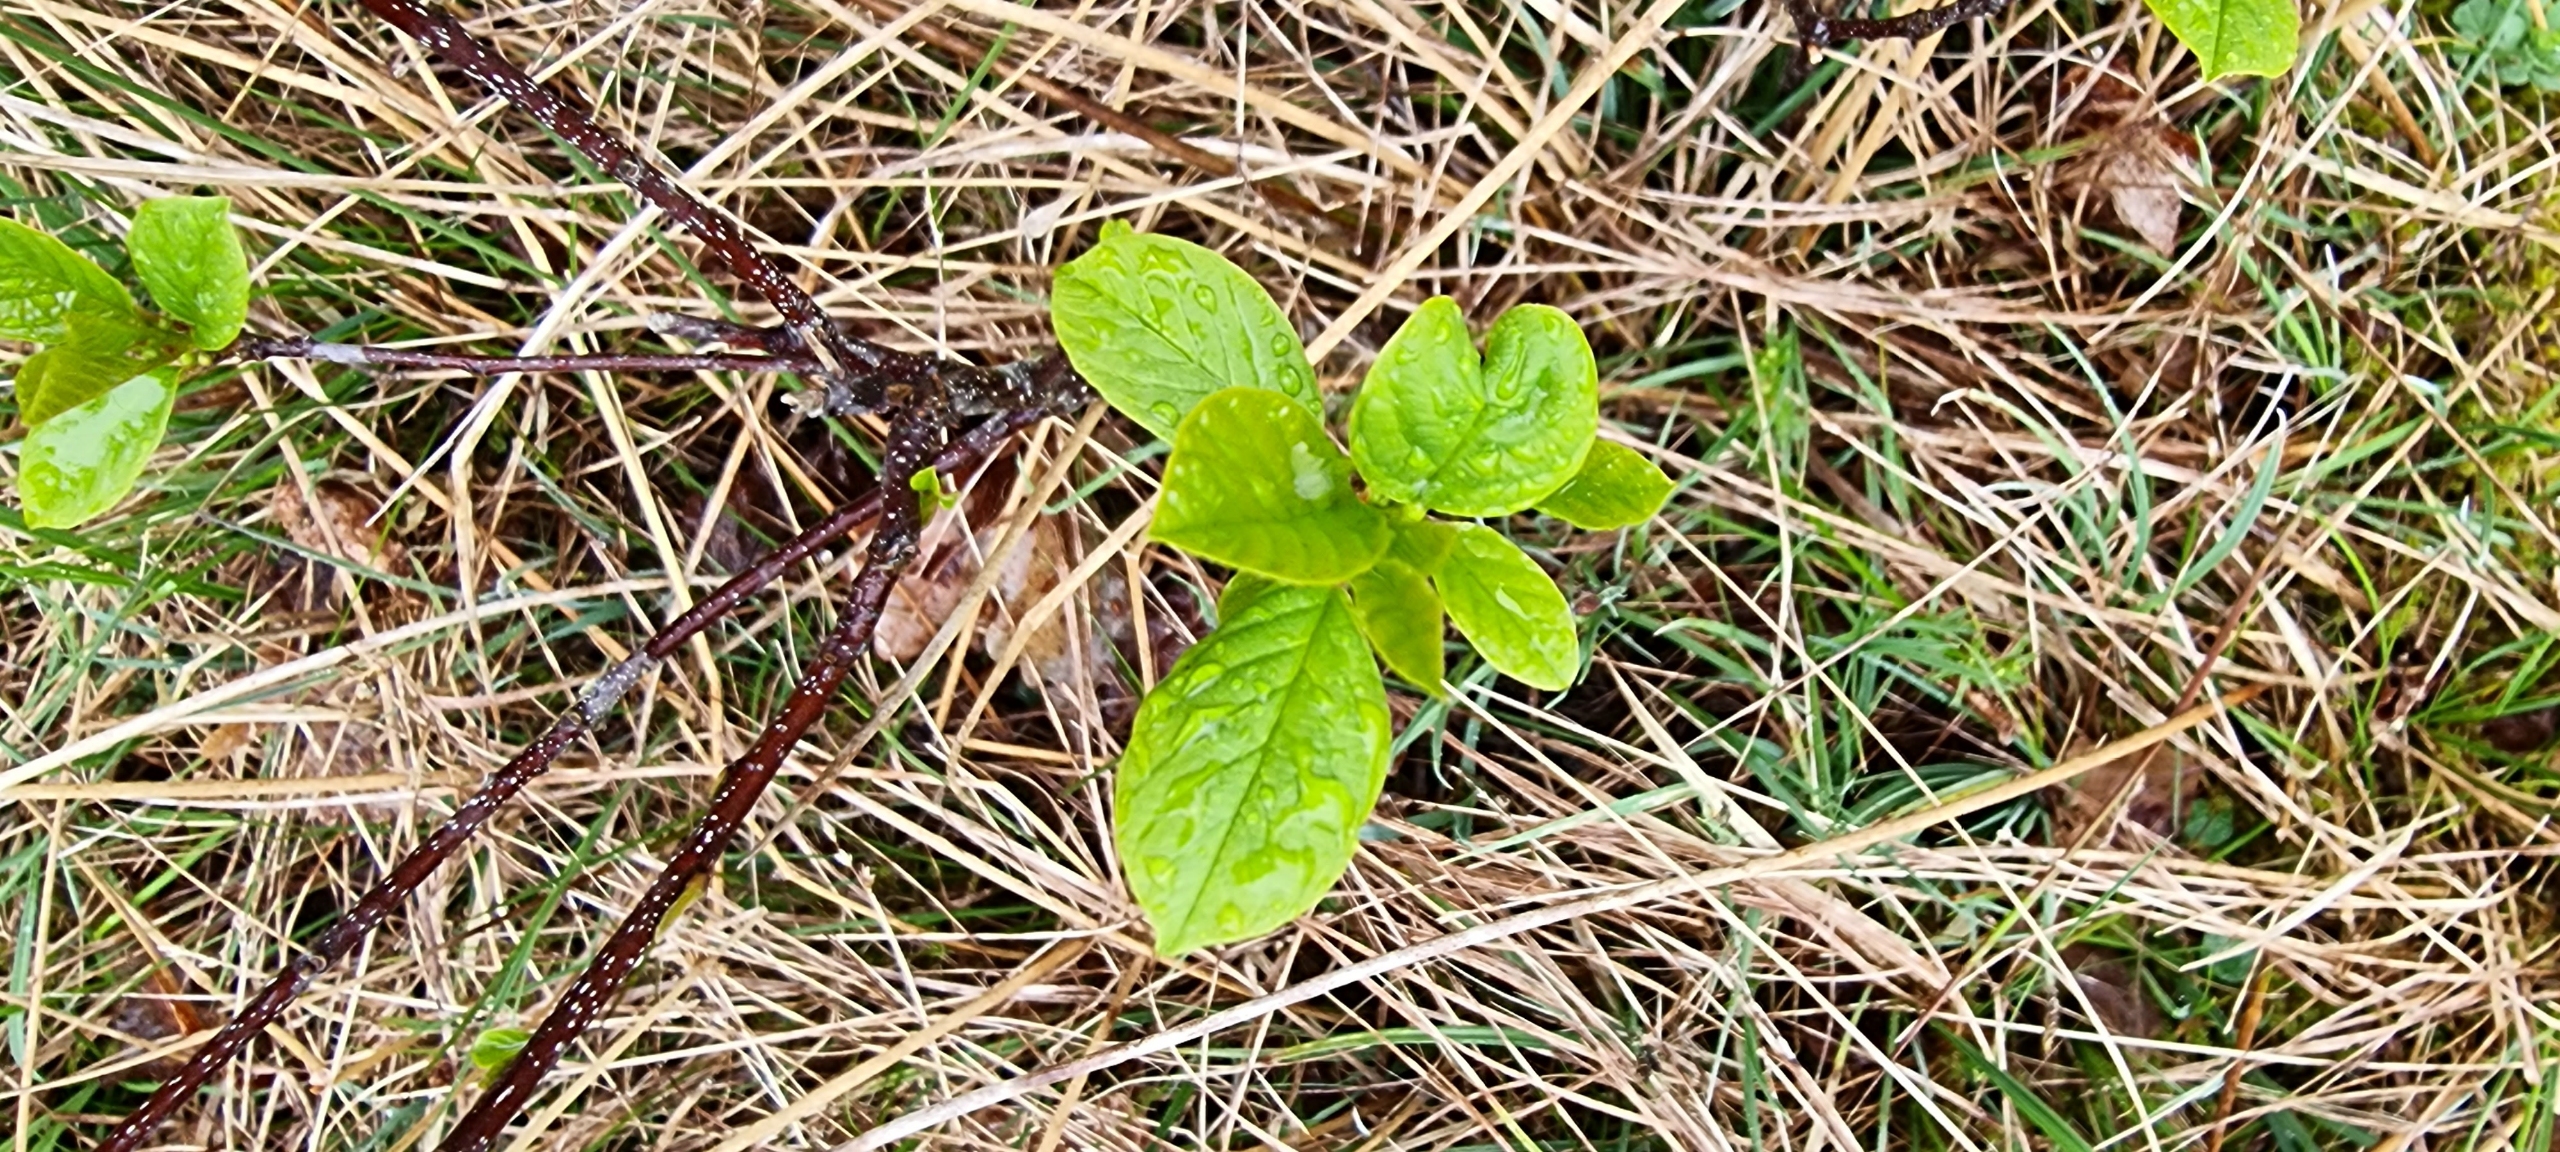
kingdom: Plantae
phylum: Tracheophyta
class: Magnoliopsida
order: Rosales
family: Rhamnaceae
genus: Frangula
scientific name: Frangula alnus
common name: Tørst
